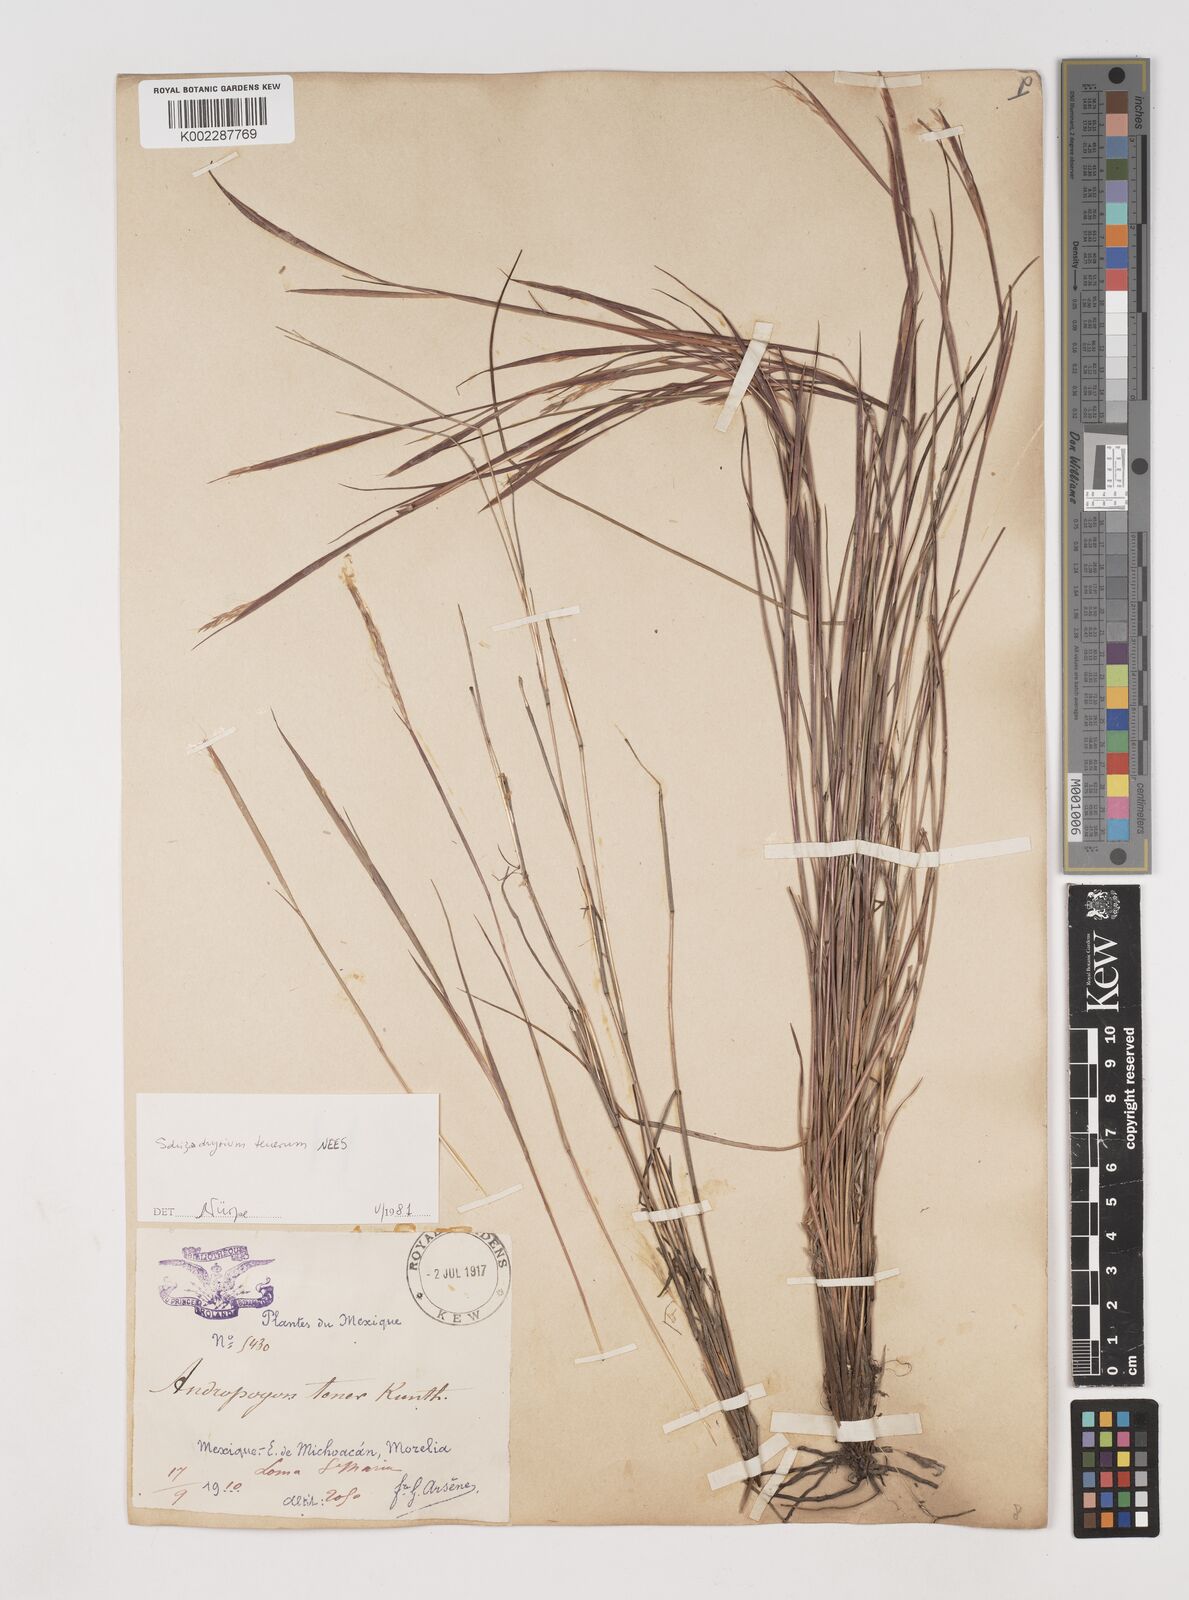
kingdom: Plantae
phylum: Tracheophyta
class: Liliopsida
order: Poales
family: Poaceae
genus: Andropogon
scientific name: Andropogon tener
